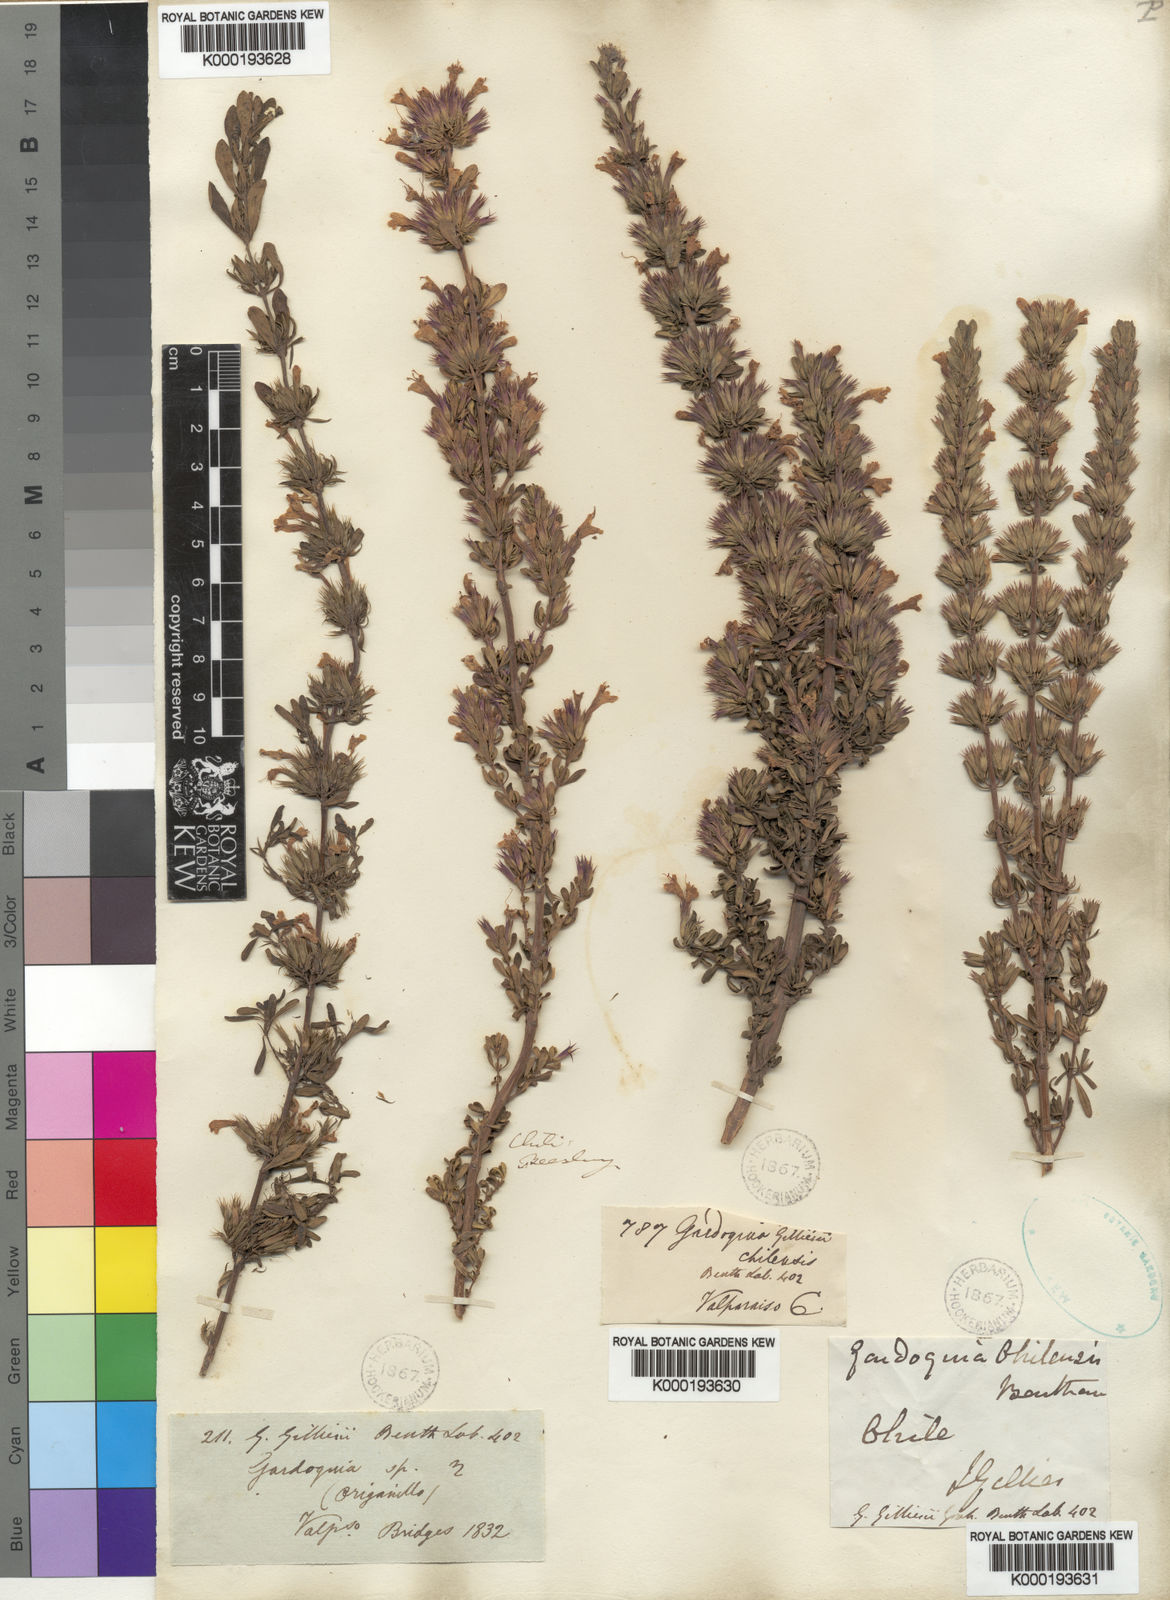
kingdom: Plantae
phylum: Tracheophyta
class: Magnoliopsida
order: Lamiales
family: Lamiaceae
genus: Clinopodium
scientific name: Clinopodium gilliesii
